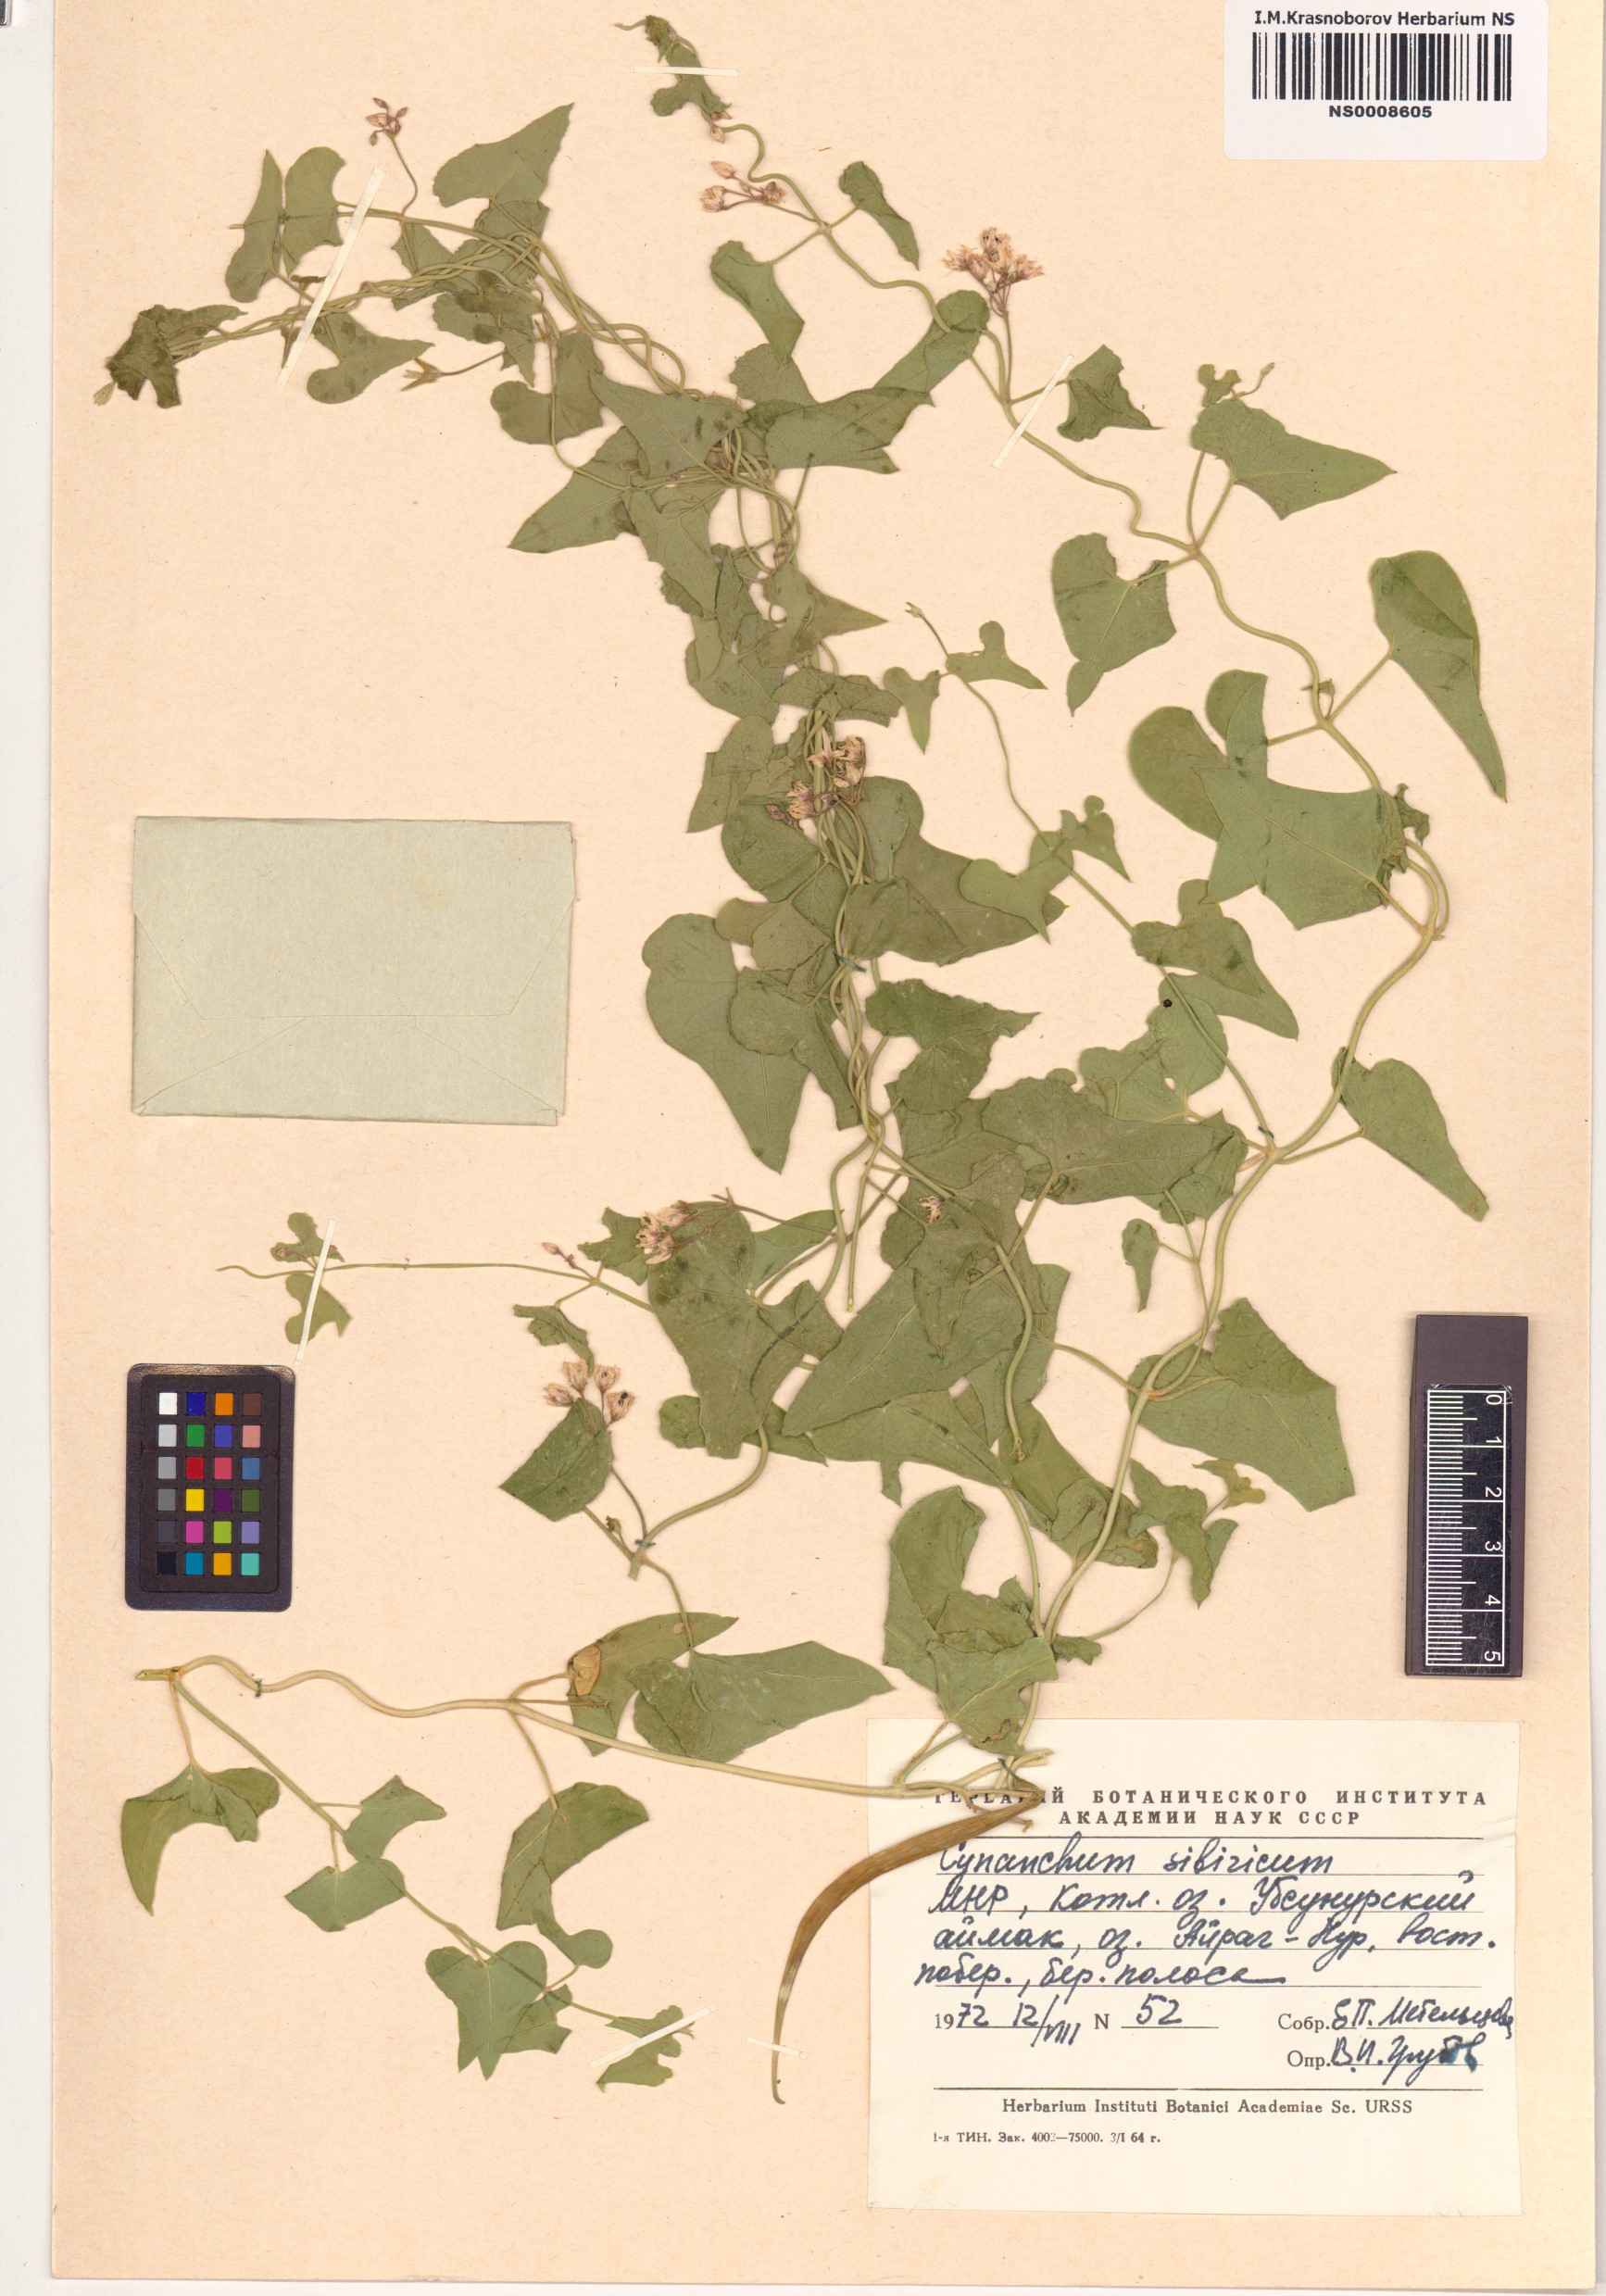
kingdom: Plantae
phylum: Tracheophyta
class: Magnoliopsida
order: Gentianales
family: Apocynaceae
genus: Cynanchum
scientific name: Cynanchum thesioides
